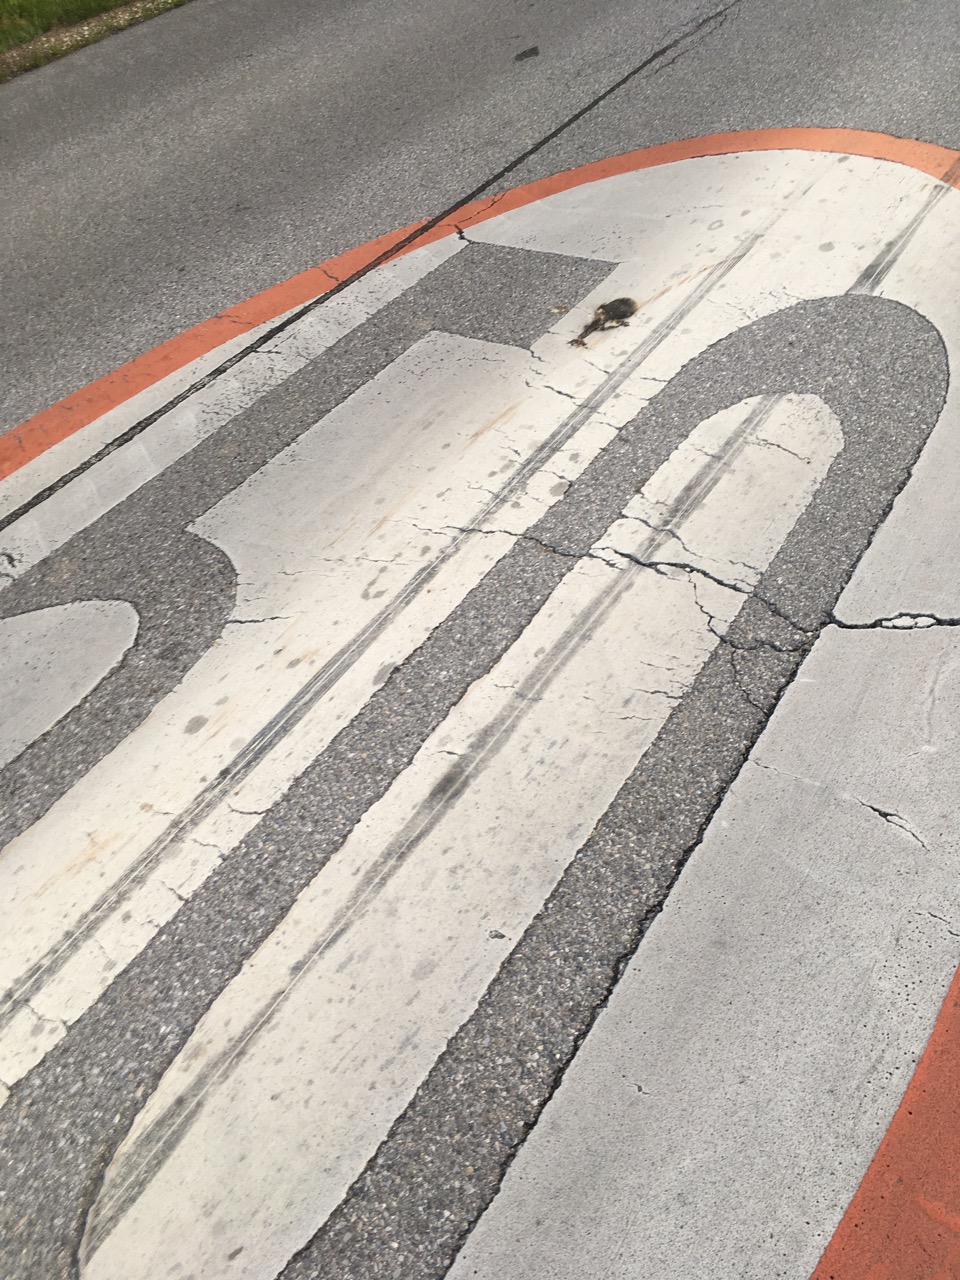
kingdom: Animalia
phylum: Chordata
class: Mammalia
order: Erinaceomorpha
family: Erinaceidae
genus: Erinaceus
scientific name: Erinaceus
